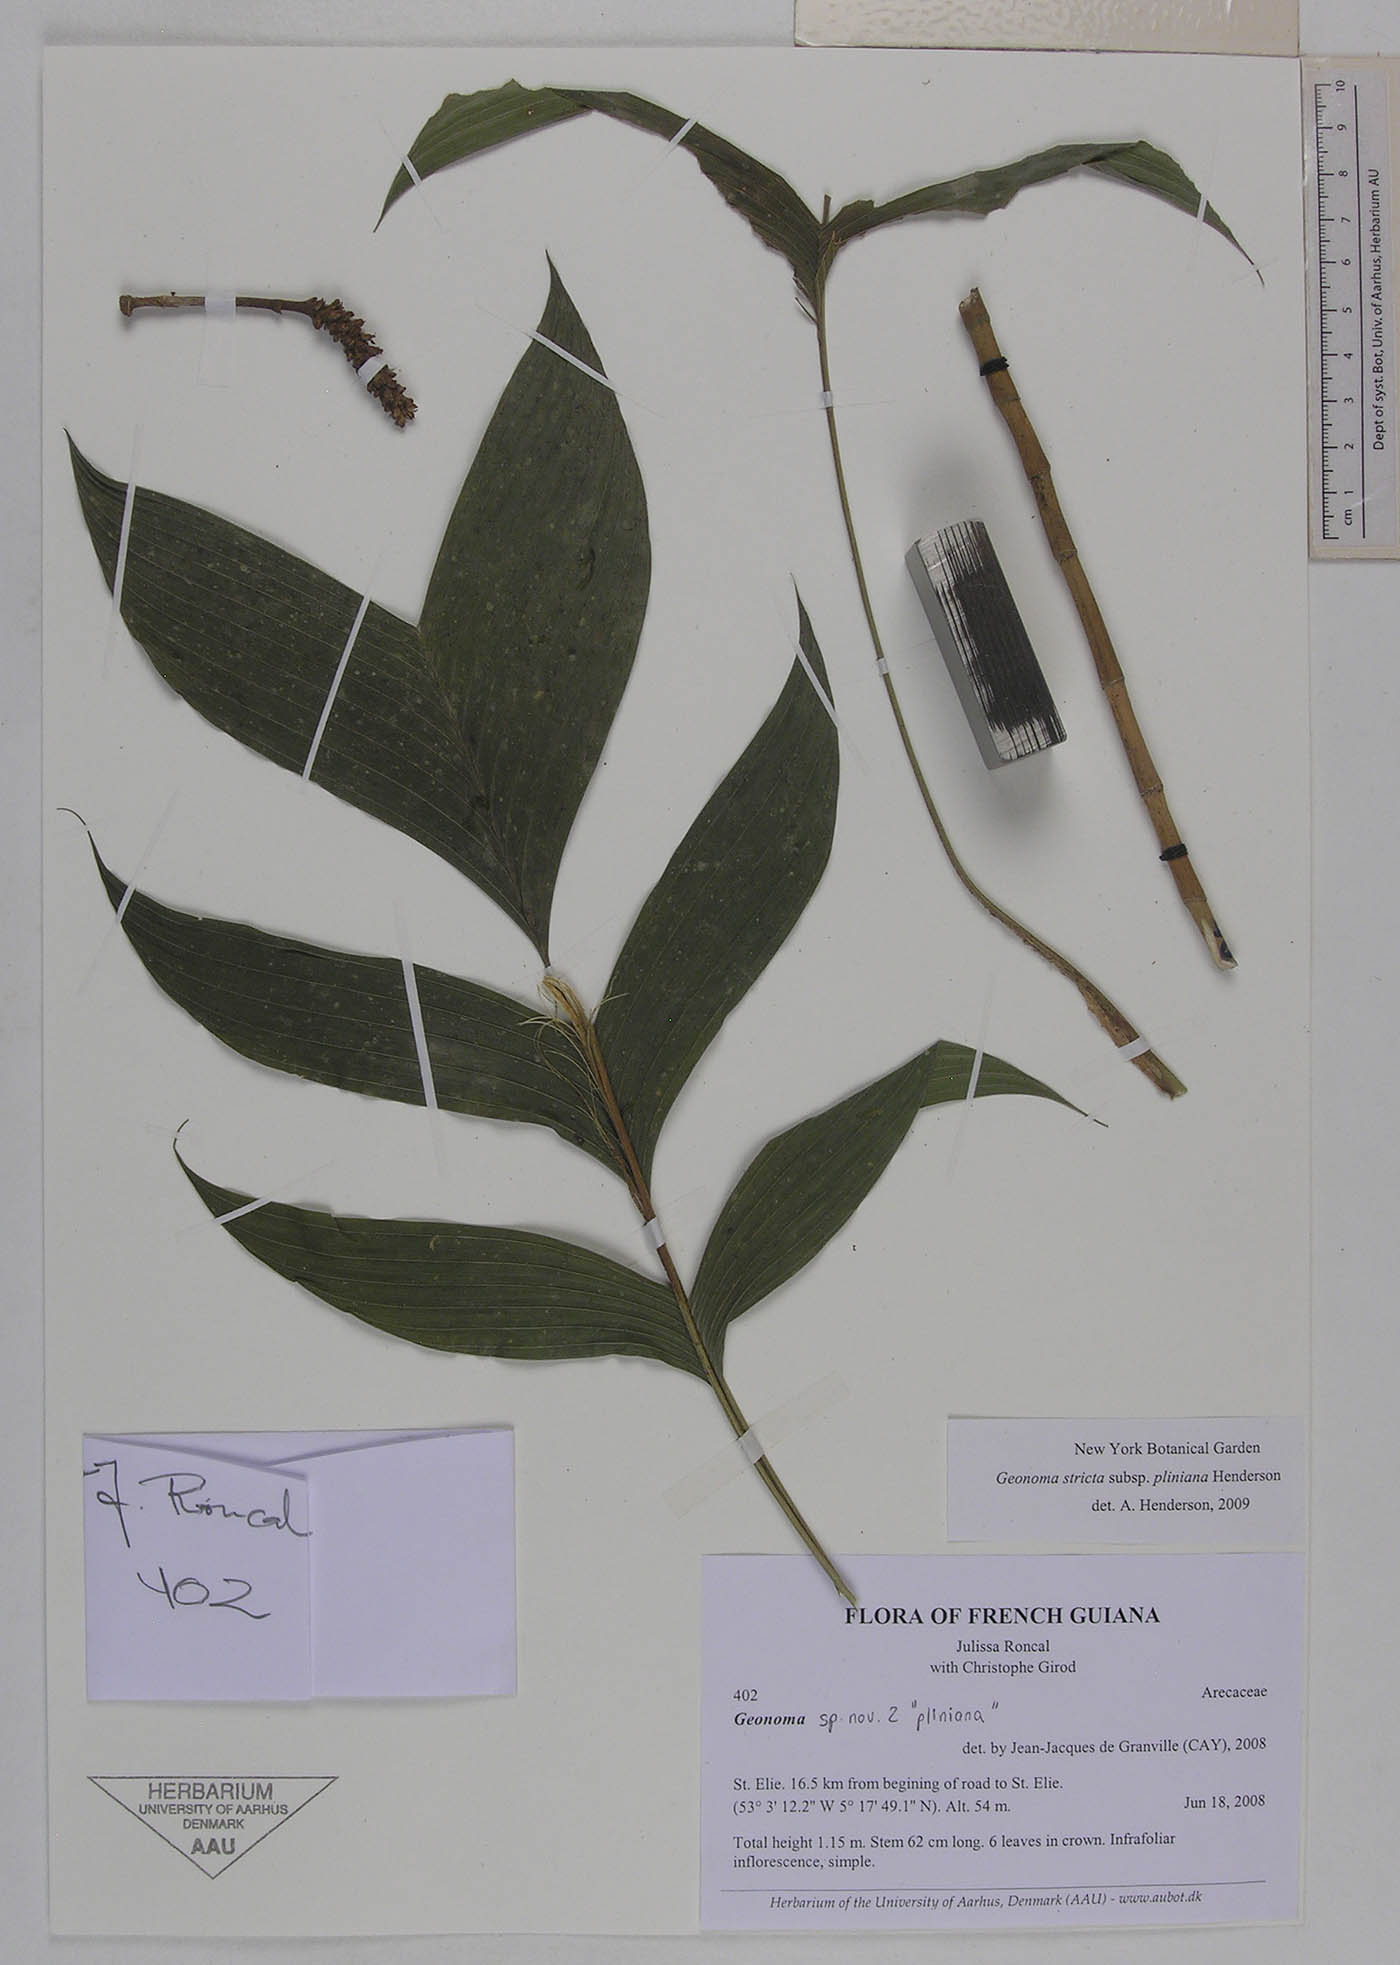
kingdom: Plantae
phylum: Tracheophyta
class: Liliopsida
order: Arecales
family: Arecaceae
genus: Geonoma
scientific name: Geonoma stricta
